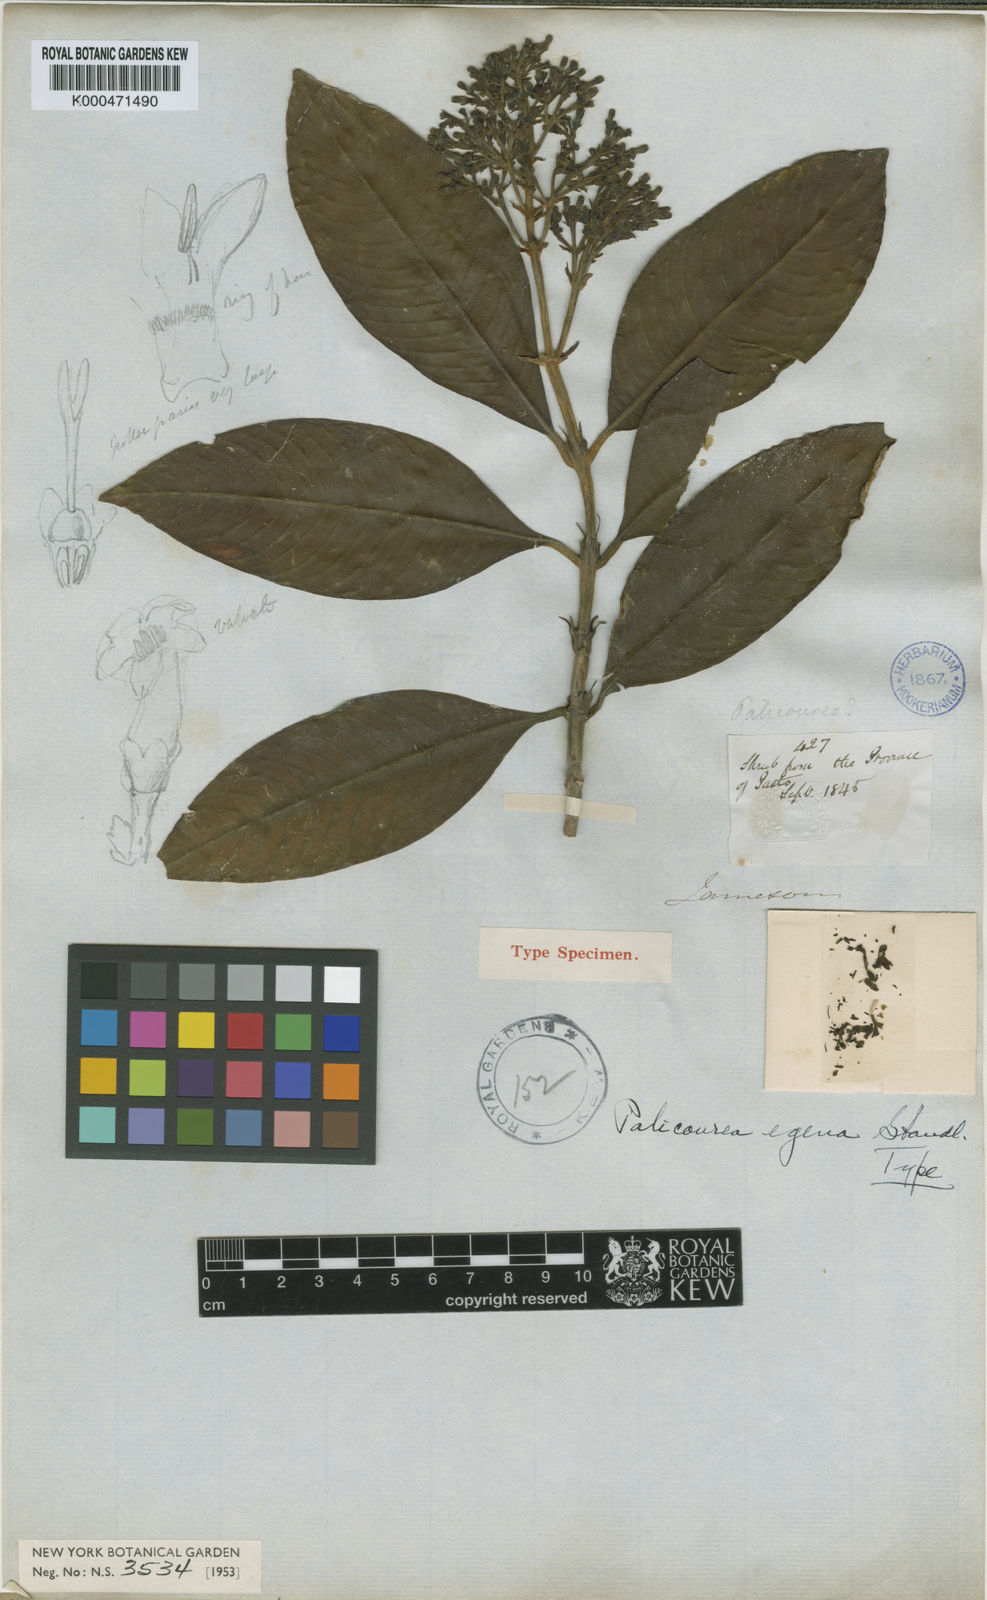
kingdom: Plantae
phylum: Tracheophyta
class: Magnoliopsida
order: Gentianales
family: Rubiaceae
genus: Palicourea
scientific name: Palicourea weberbaueri
